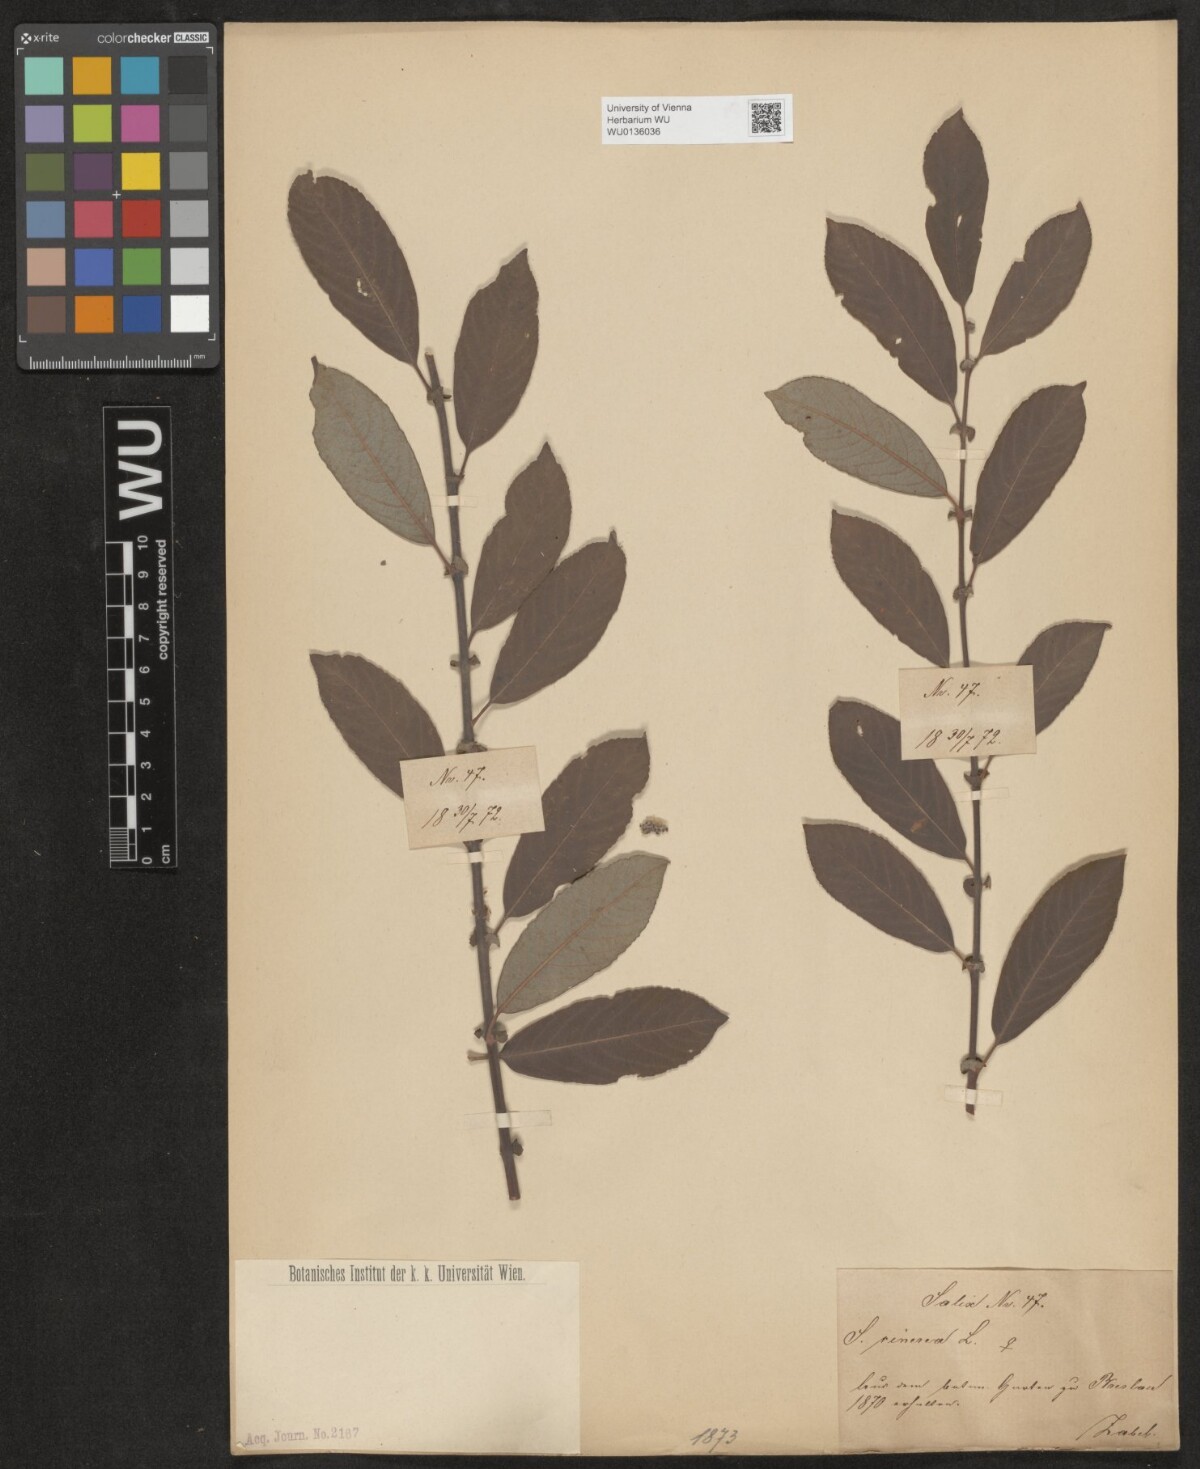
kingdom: Plantae
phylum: Tracheophyta
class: Magnoliopsida
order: Malpighiales
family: Salicaceae
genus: Salix
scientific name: Salix cinerea
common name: Common sallow
